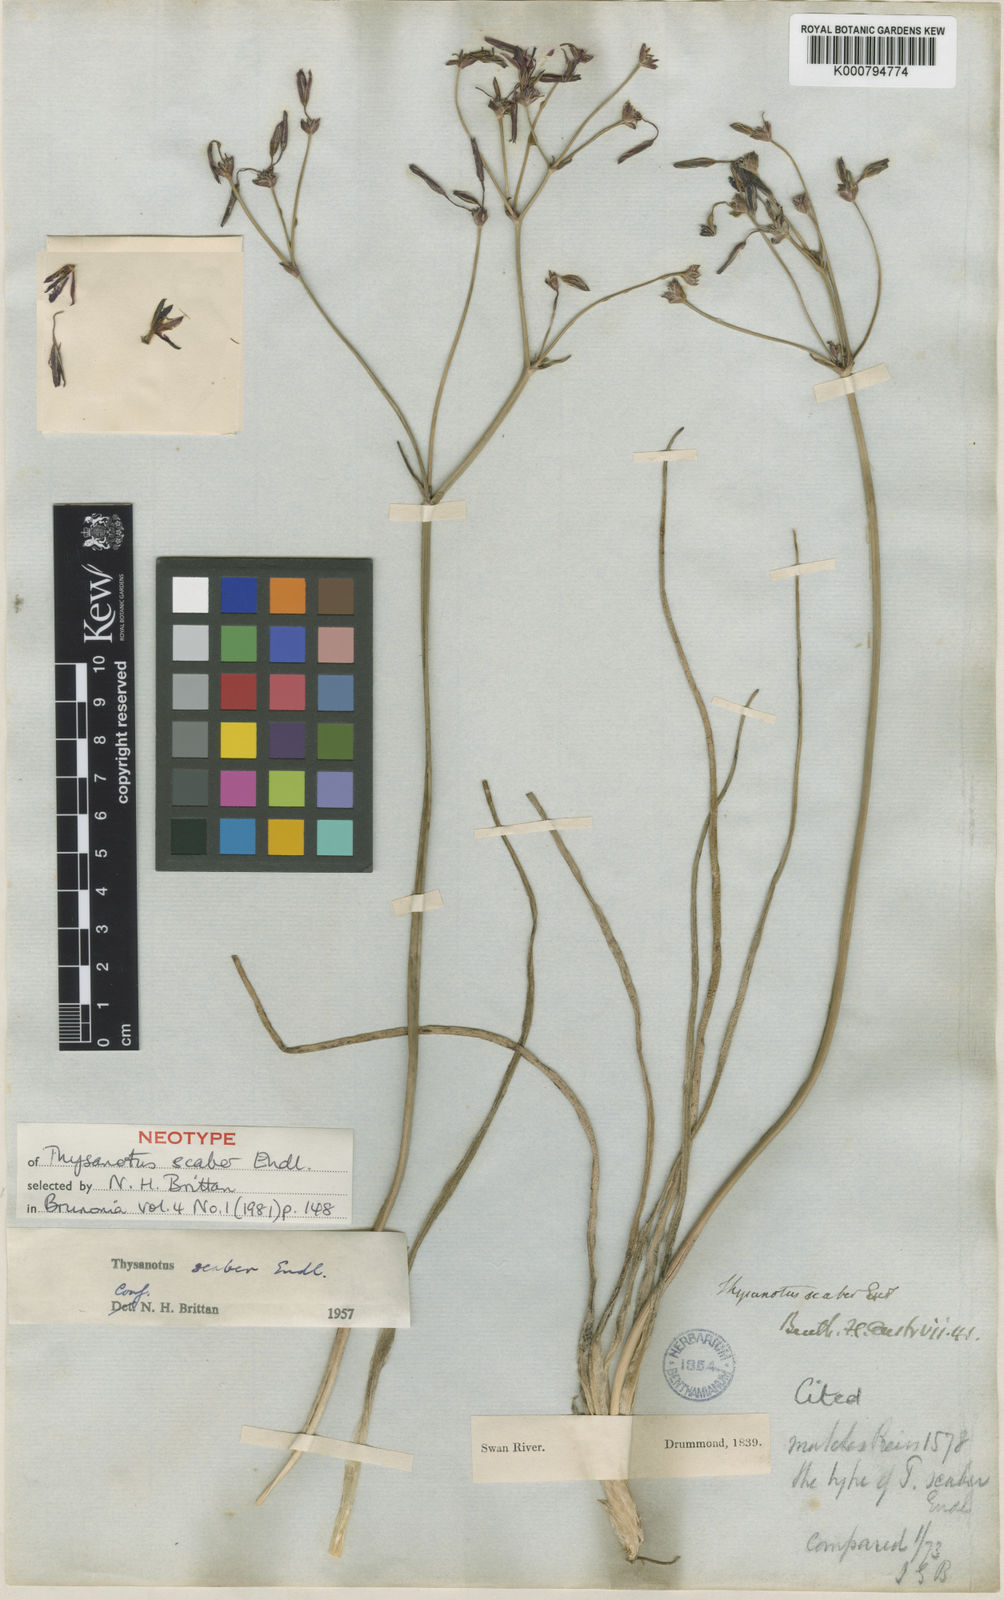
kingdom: Plantae
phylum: Tracheophyta
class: Liliopsida
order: Asparagales
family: Asparagaceae
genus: Thysanotus
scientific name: Thysanotus scaber
